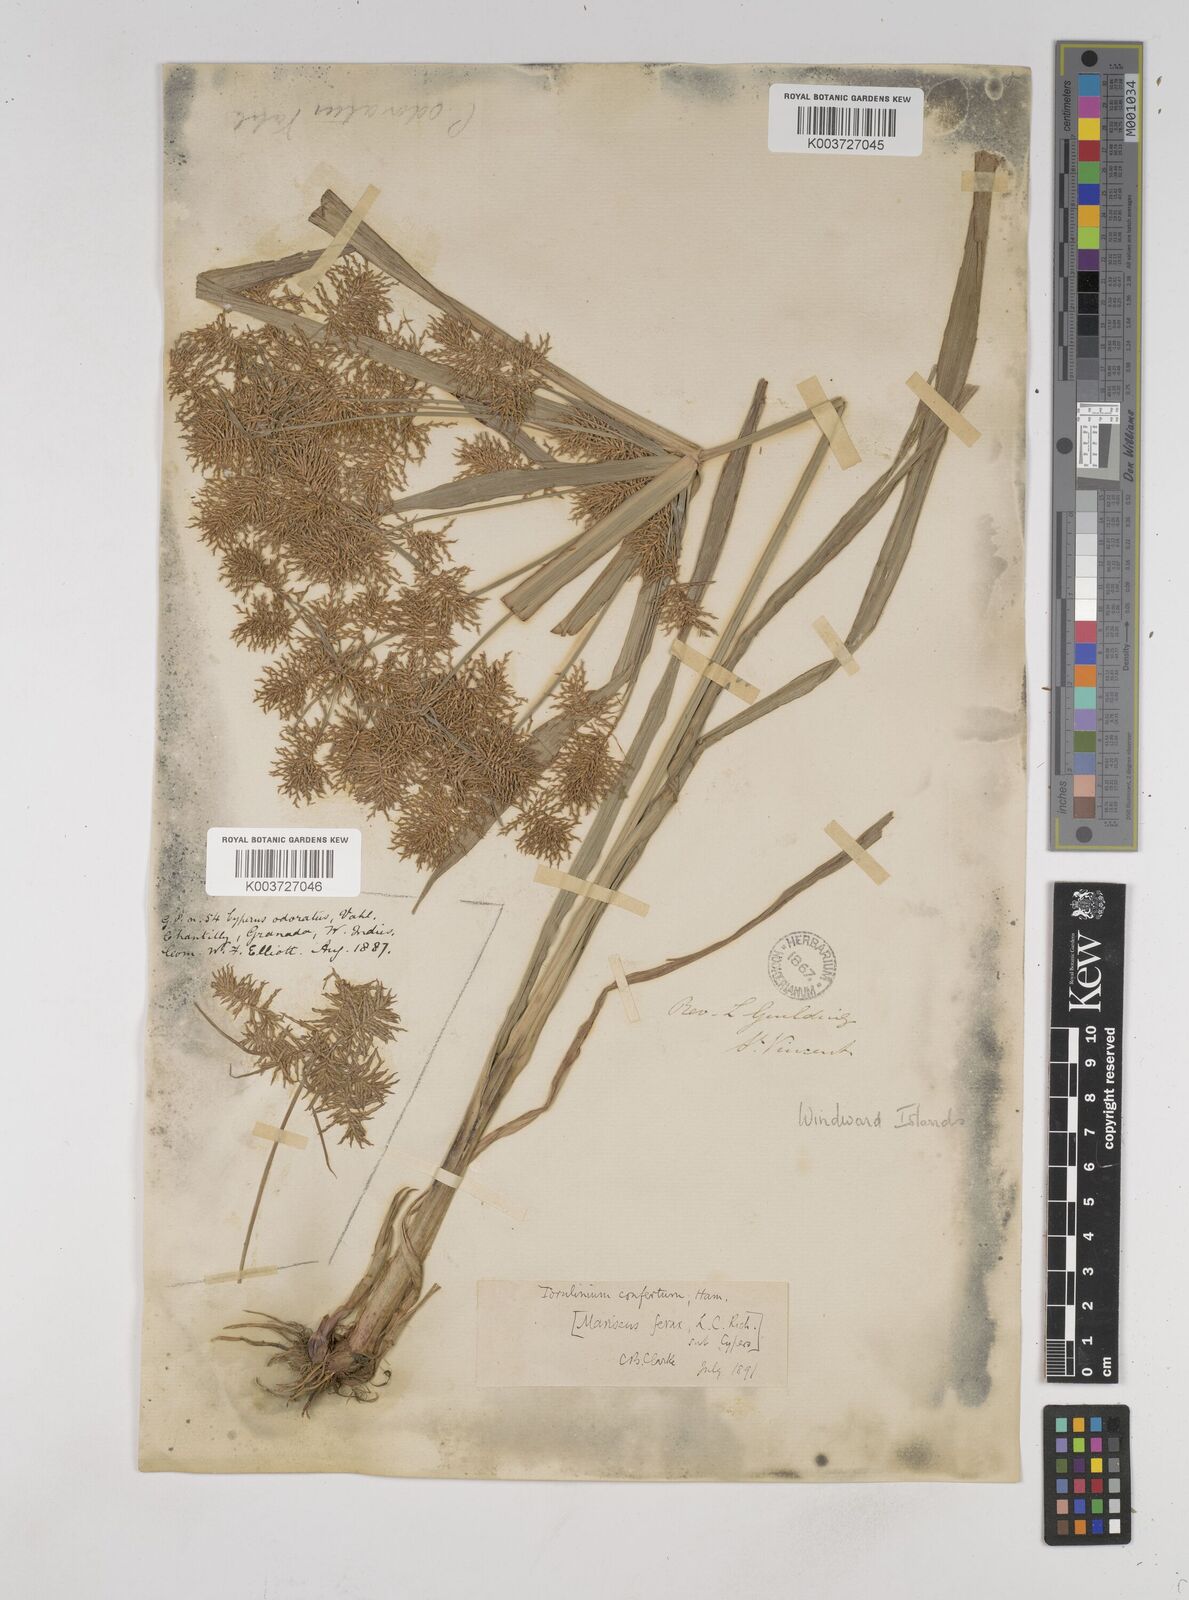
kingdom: Plantae
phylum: Tracheophyta
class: Liliopsida
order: Poales
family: Cyperaceae
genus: Cyperus
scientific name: Cyperus odoratus
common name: Fragrant flatsedge
